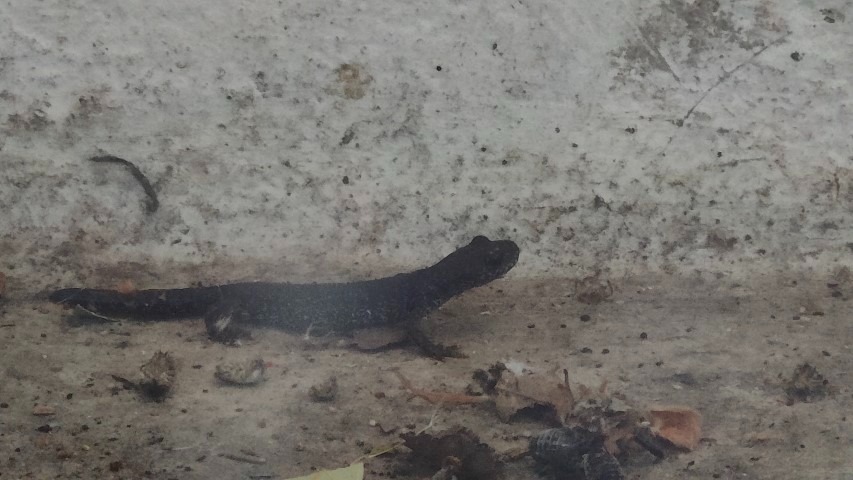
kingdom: Animalia
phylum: Chordata
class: Amphibia
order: Caudata
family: Salamandridae
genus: Triturus
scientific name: Triturus cristatus
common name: Stor vandsalamander
